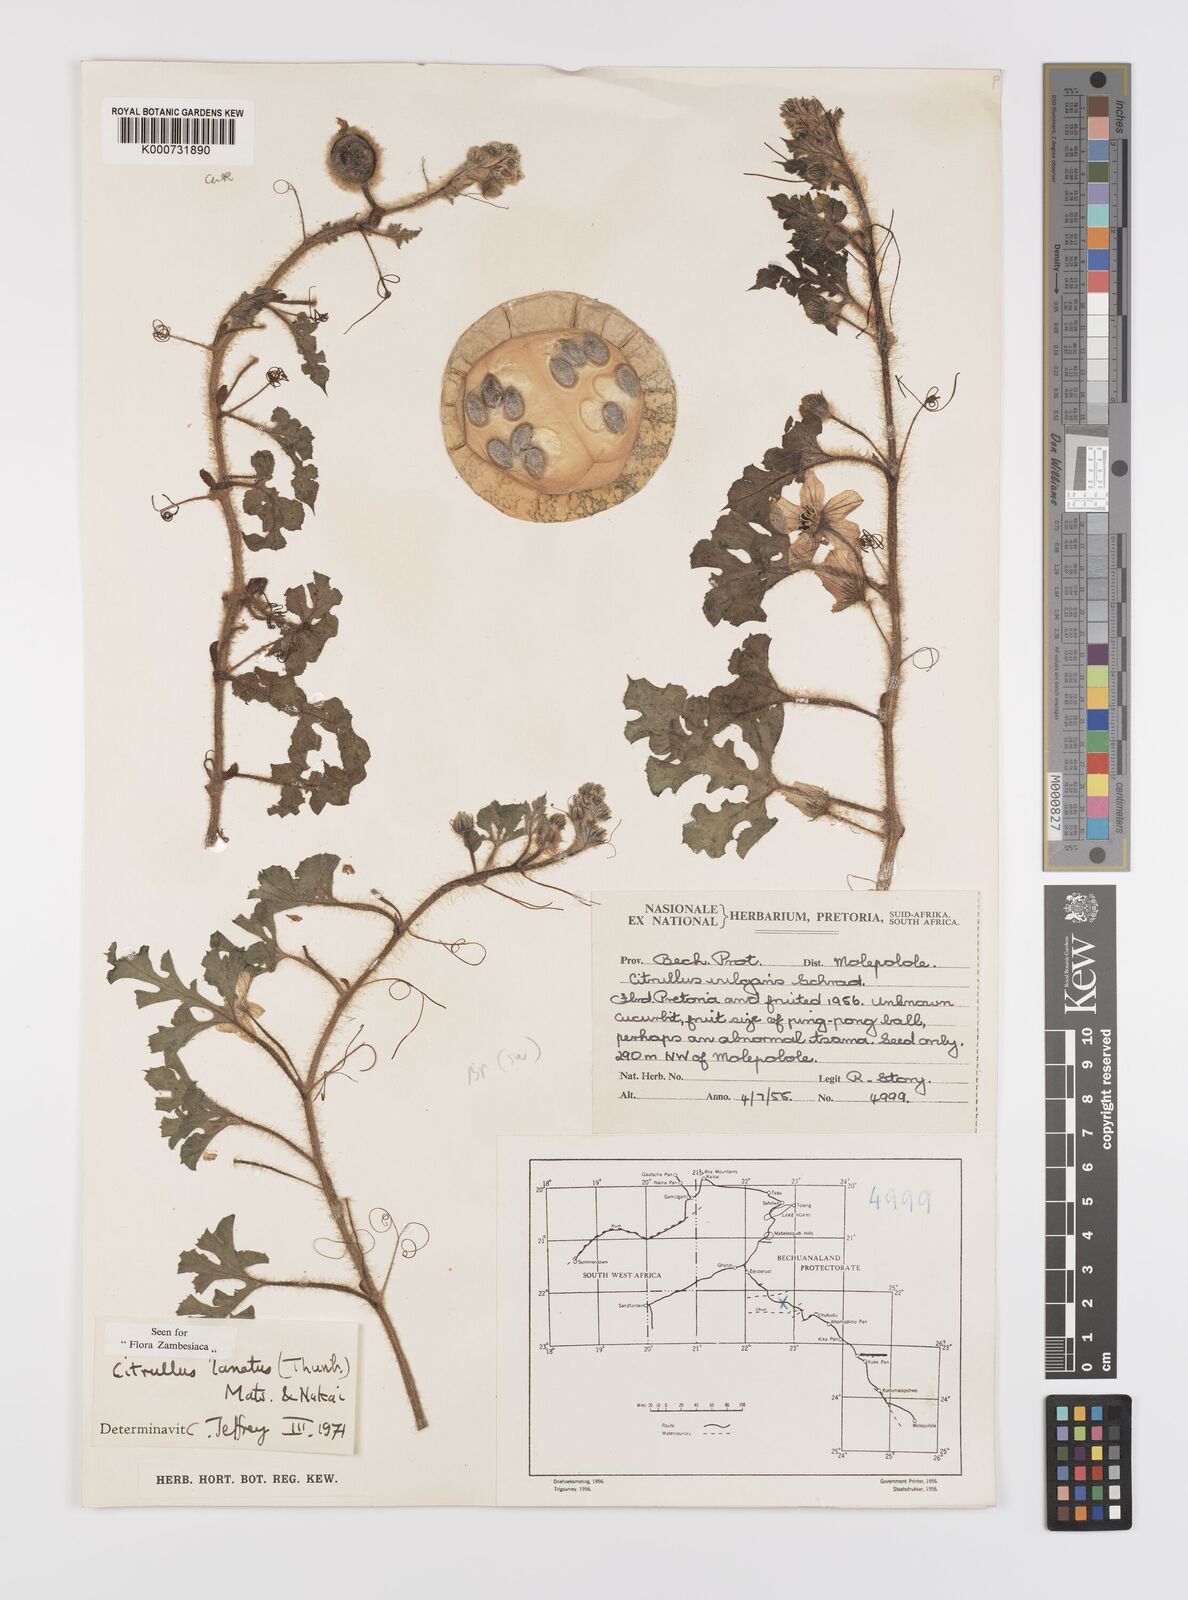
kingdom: Plantae
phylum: Tracheophyta
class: Magnoliopsida
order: Cucurbitales
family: Cucurbitaceae
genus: Citrullus
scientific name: Citrullus lanatus
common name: Watermelon
